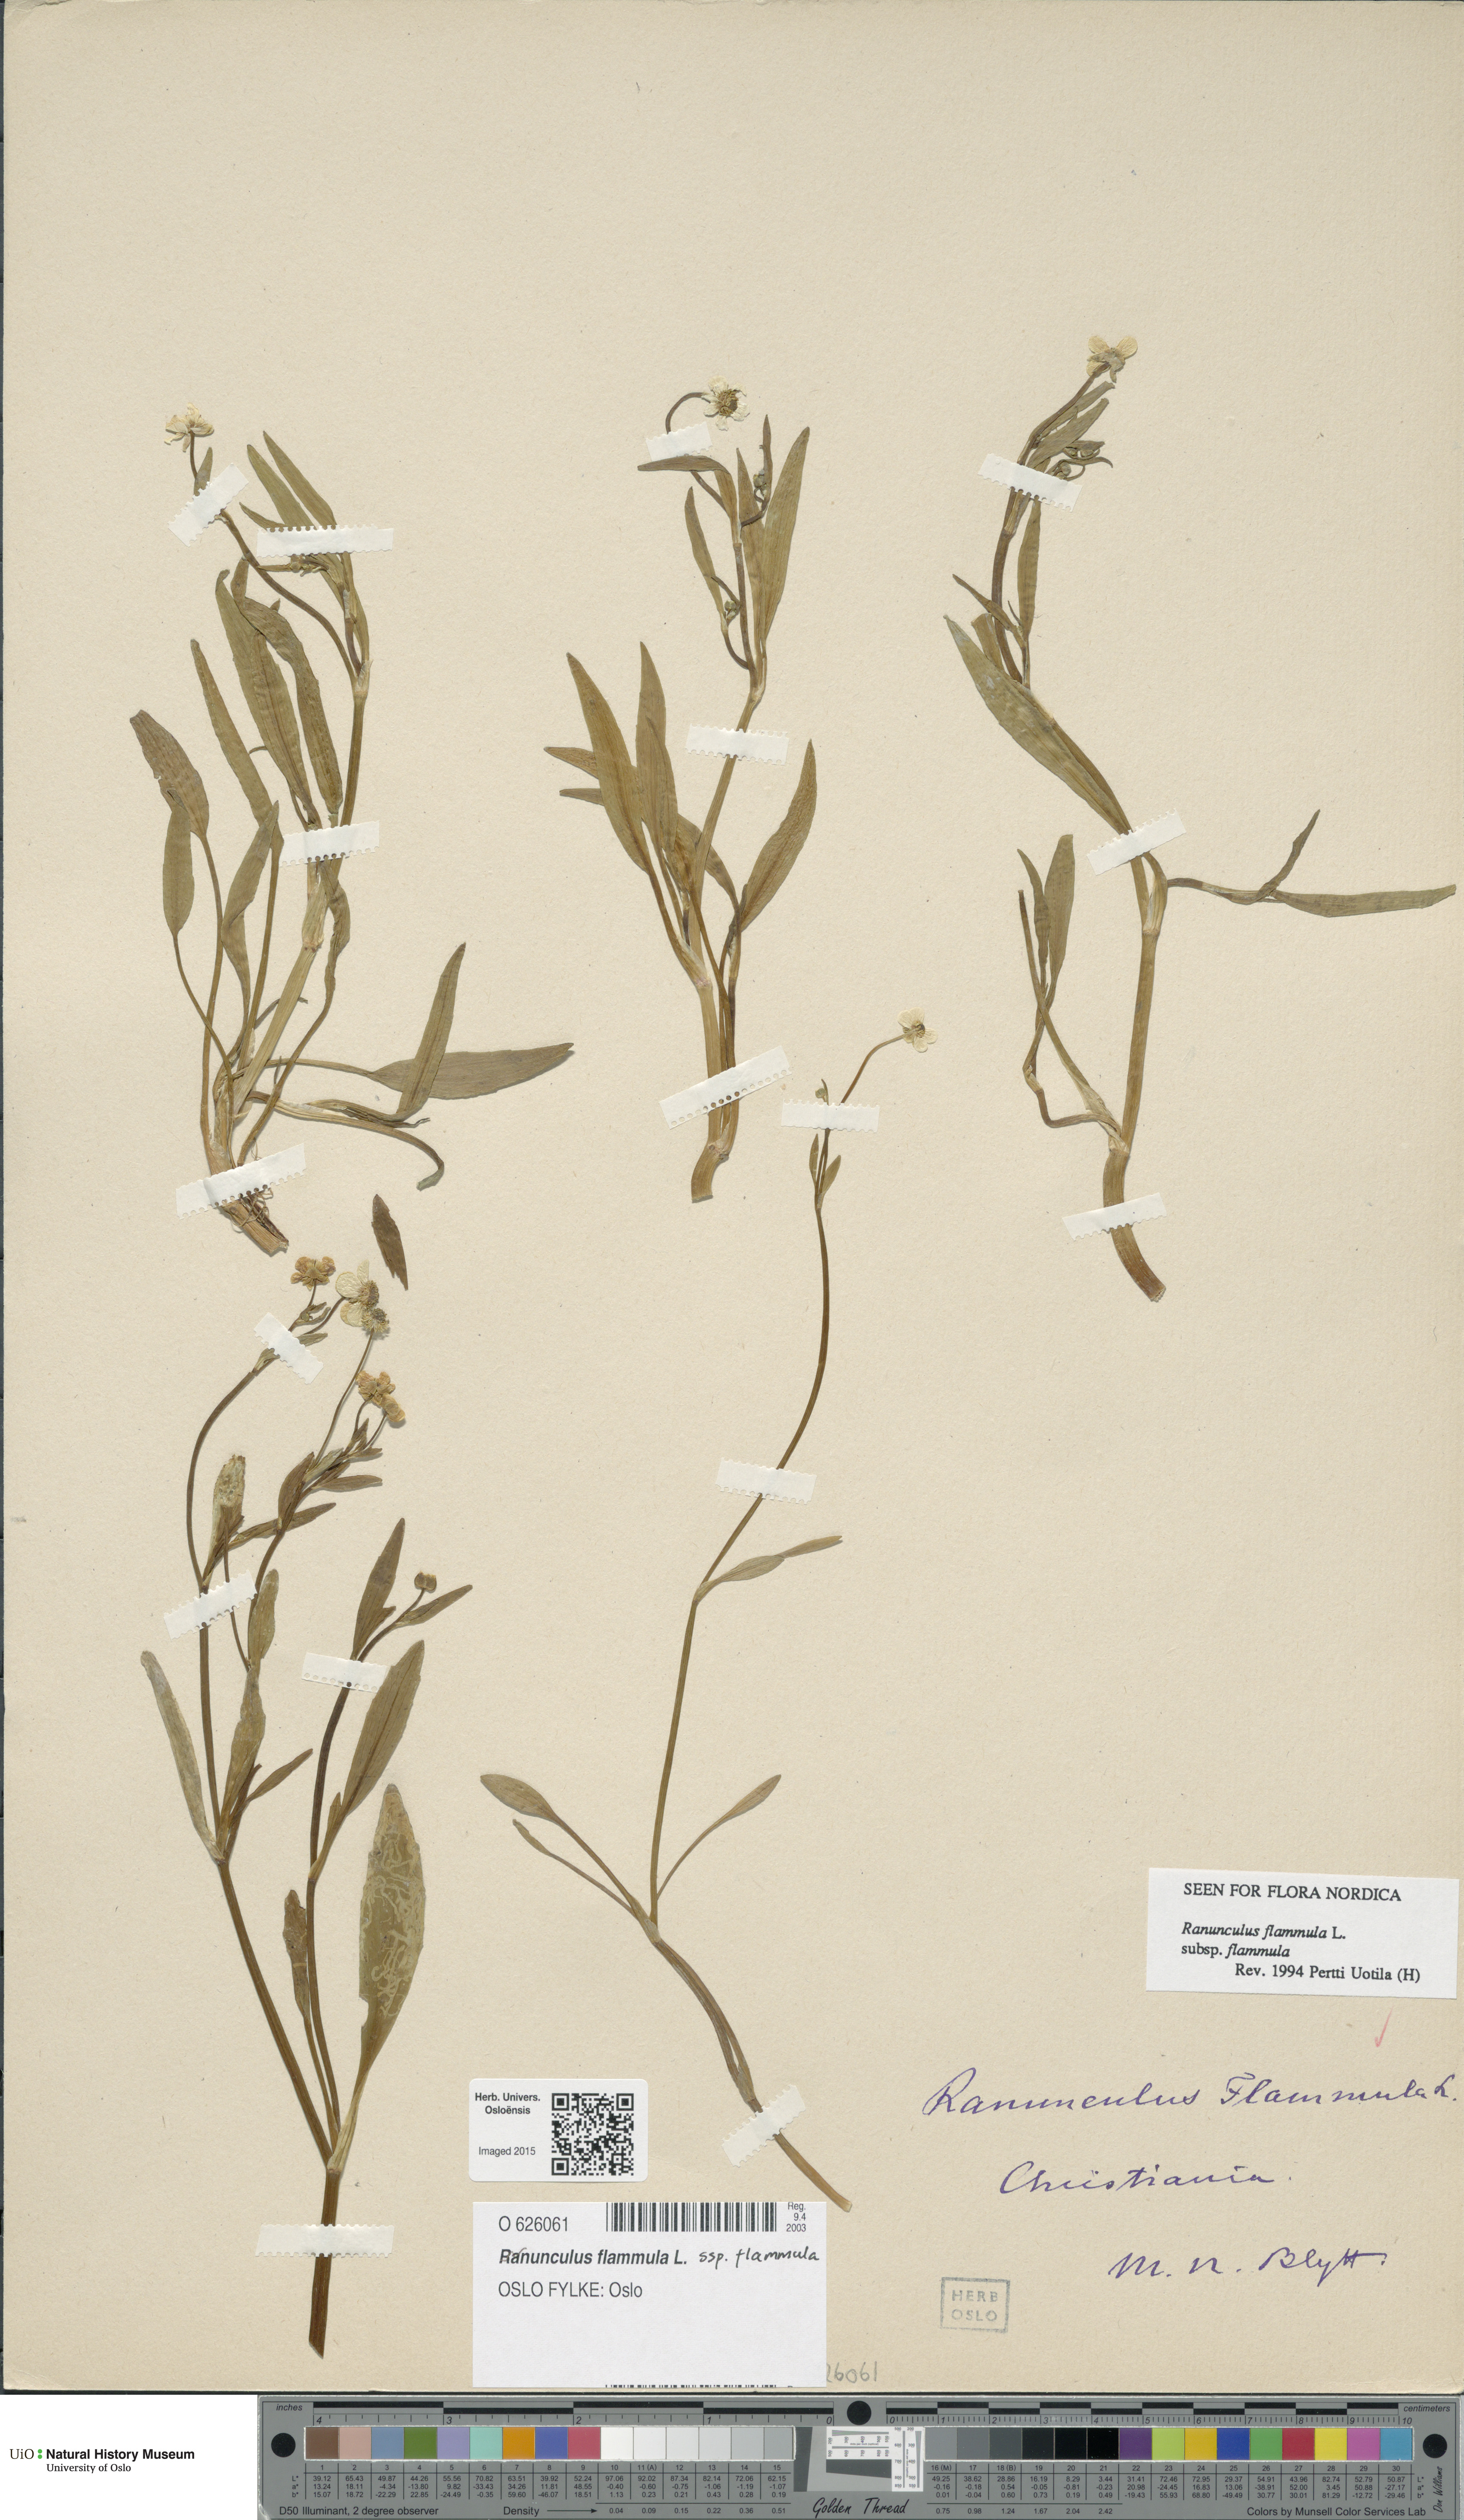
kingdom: Plantae
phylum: Tracheophyta
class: Magnoliopsida
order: Ranunculales
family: Ranunculaceae
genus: Ranunculus
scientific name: Ranunculus flammula
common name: Lesser spearwort
